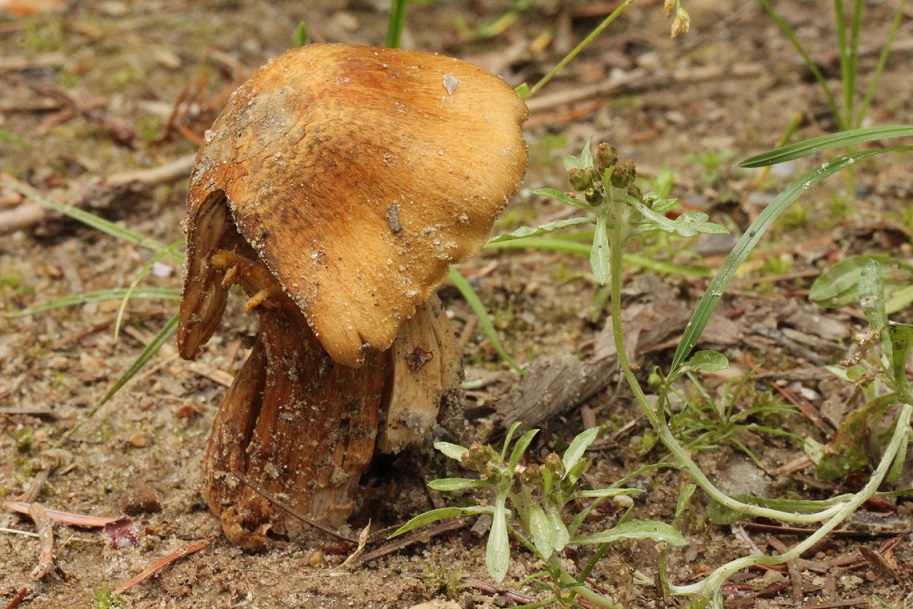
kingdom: Fungi
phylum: Basidiomycota
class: Agaricomycetes
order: Agaricales
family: Inocybaceae
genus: Pseudosperma
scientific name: Pseudosperma
